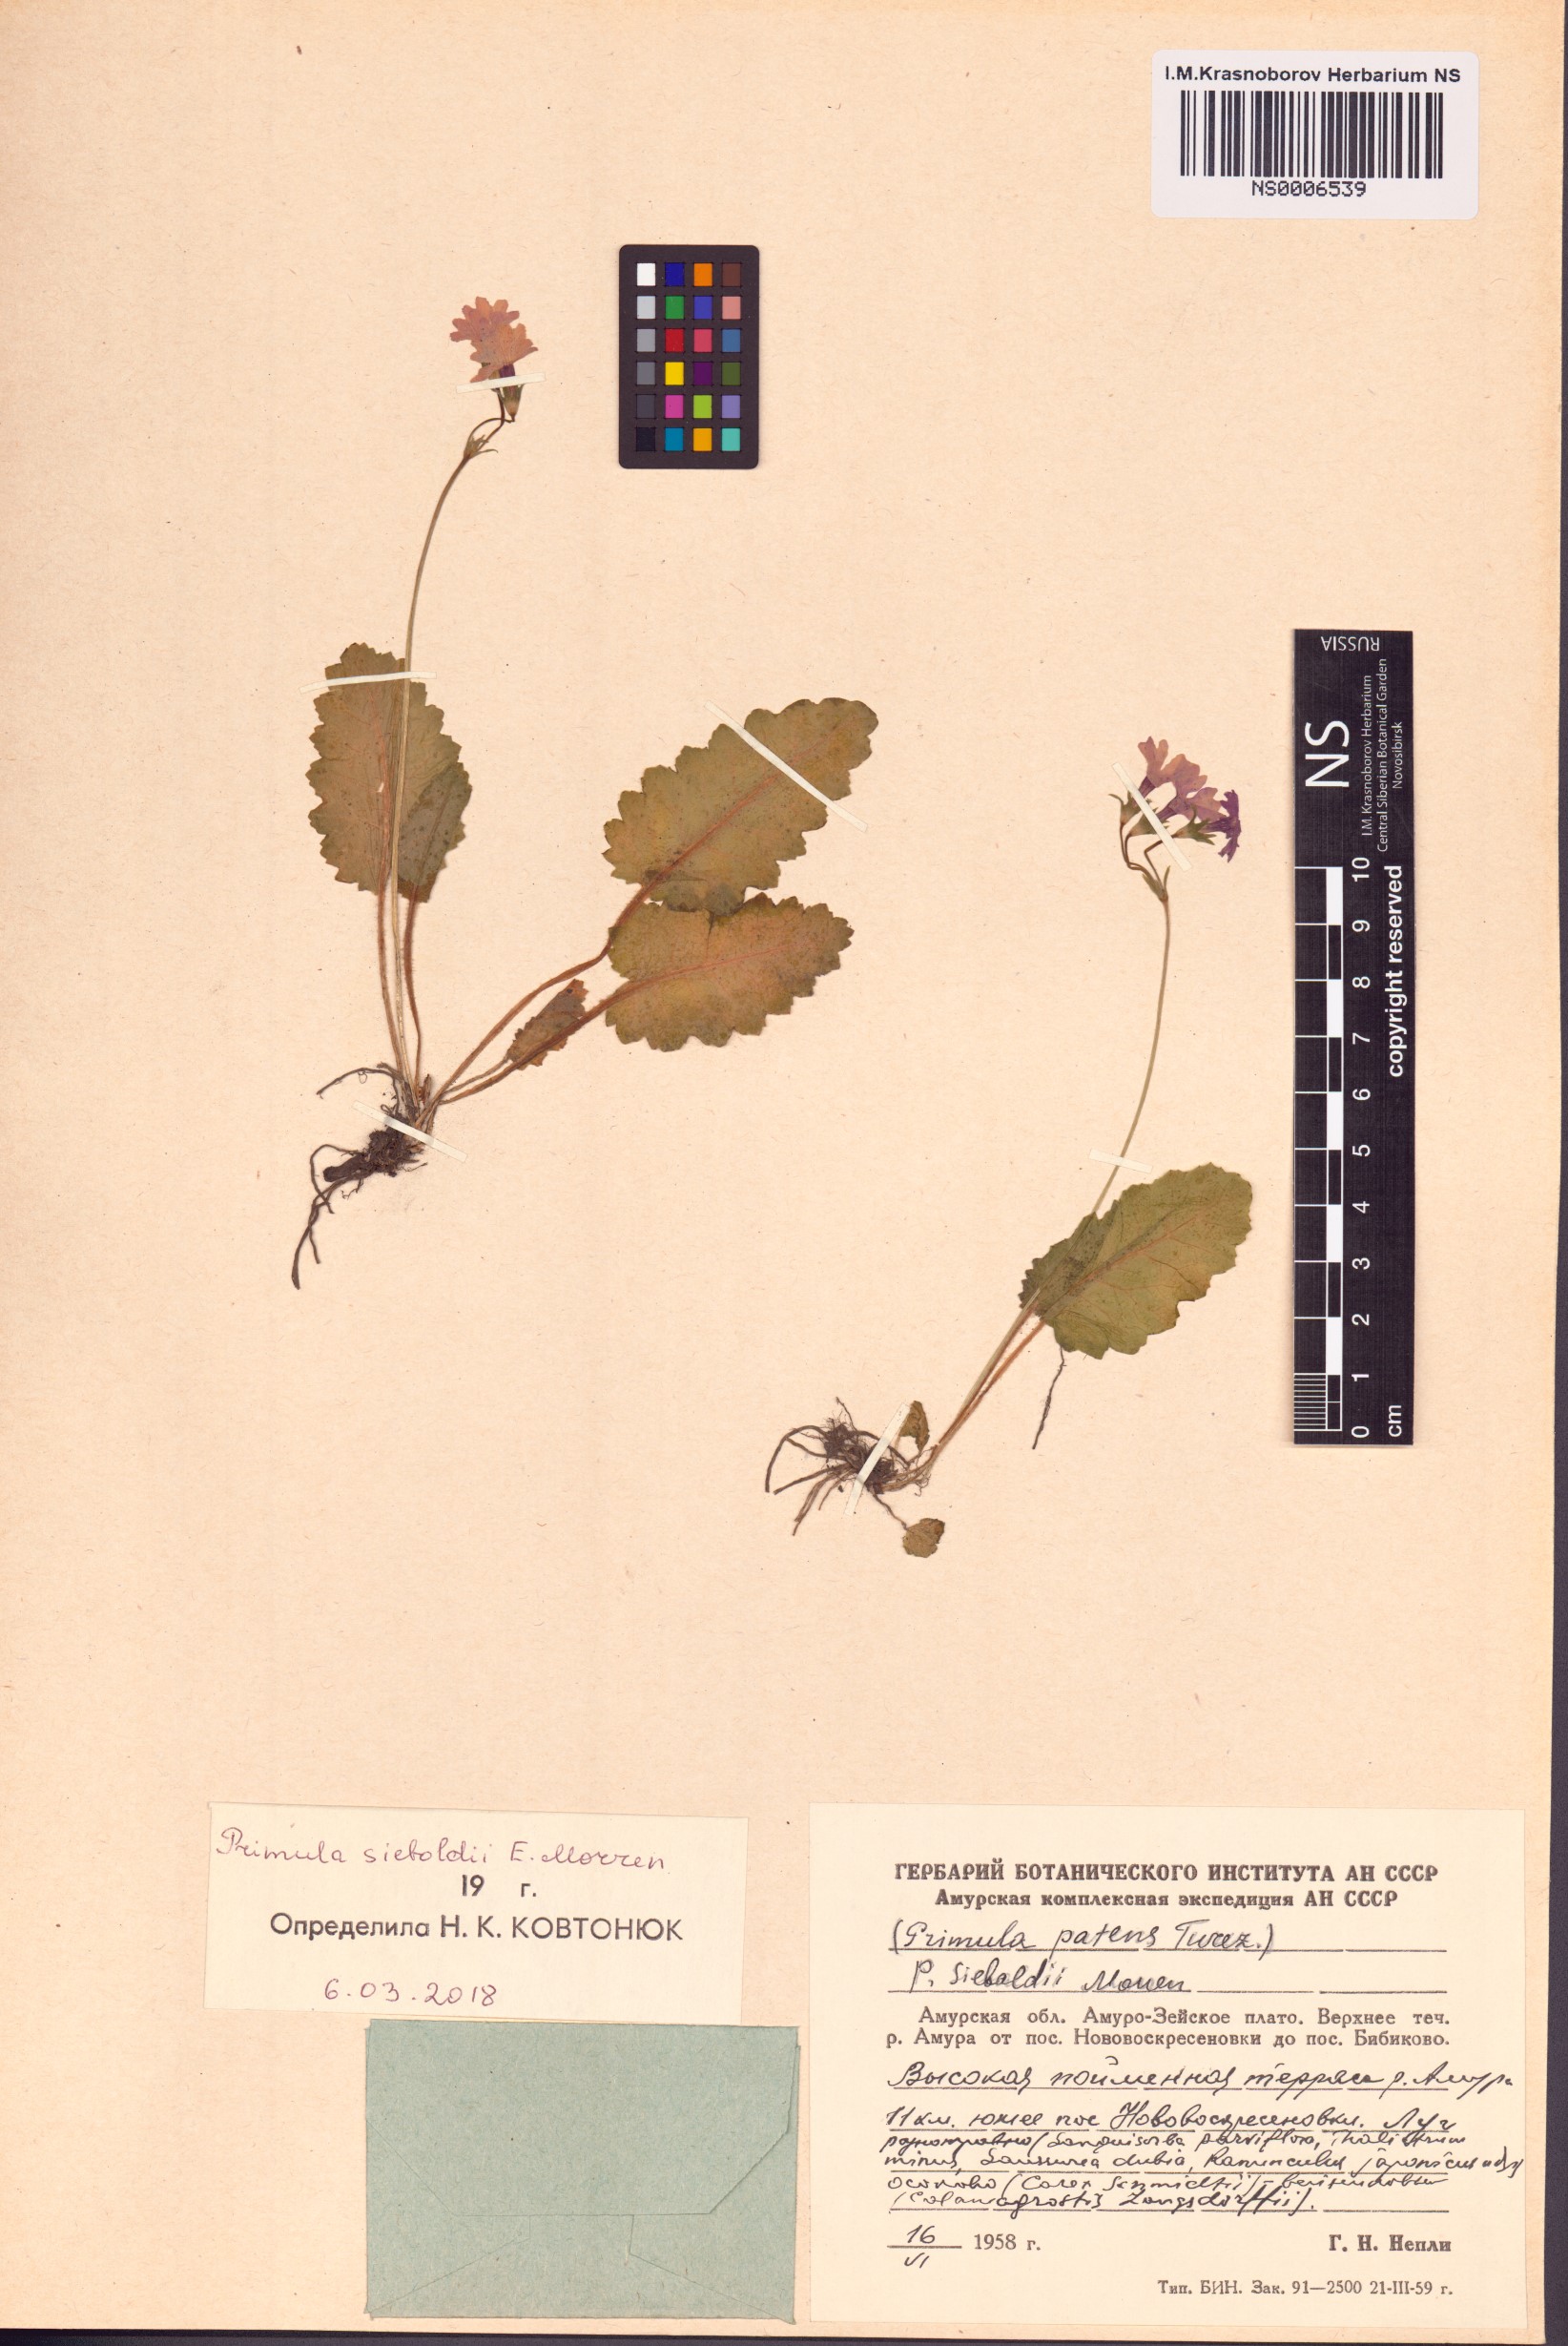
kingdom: Plantae
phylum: Tracheophyta
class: Magnoliopsida
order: Ericales
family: Primulaceae
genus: Primula
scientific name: Primula sieboldii
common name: Japanese primrose
